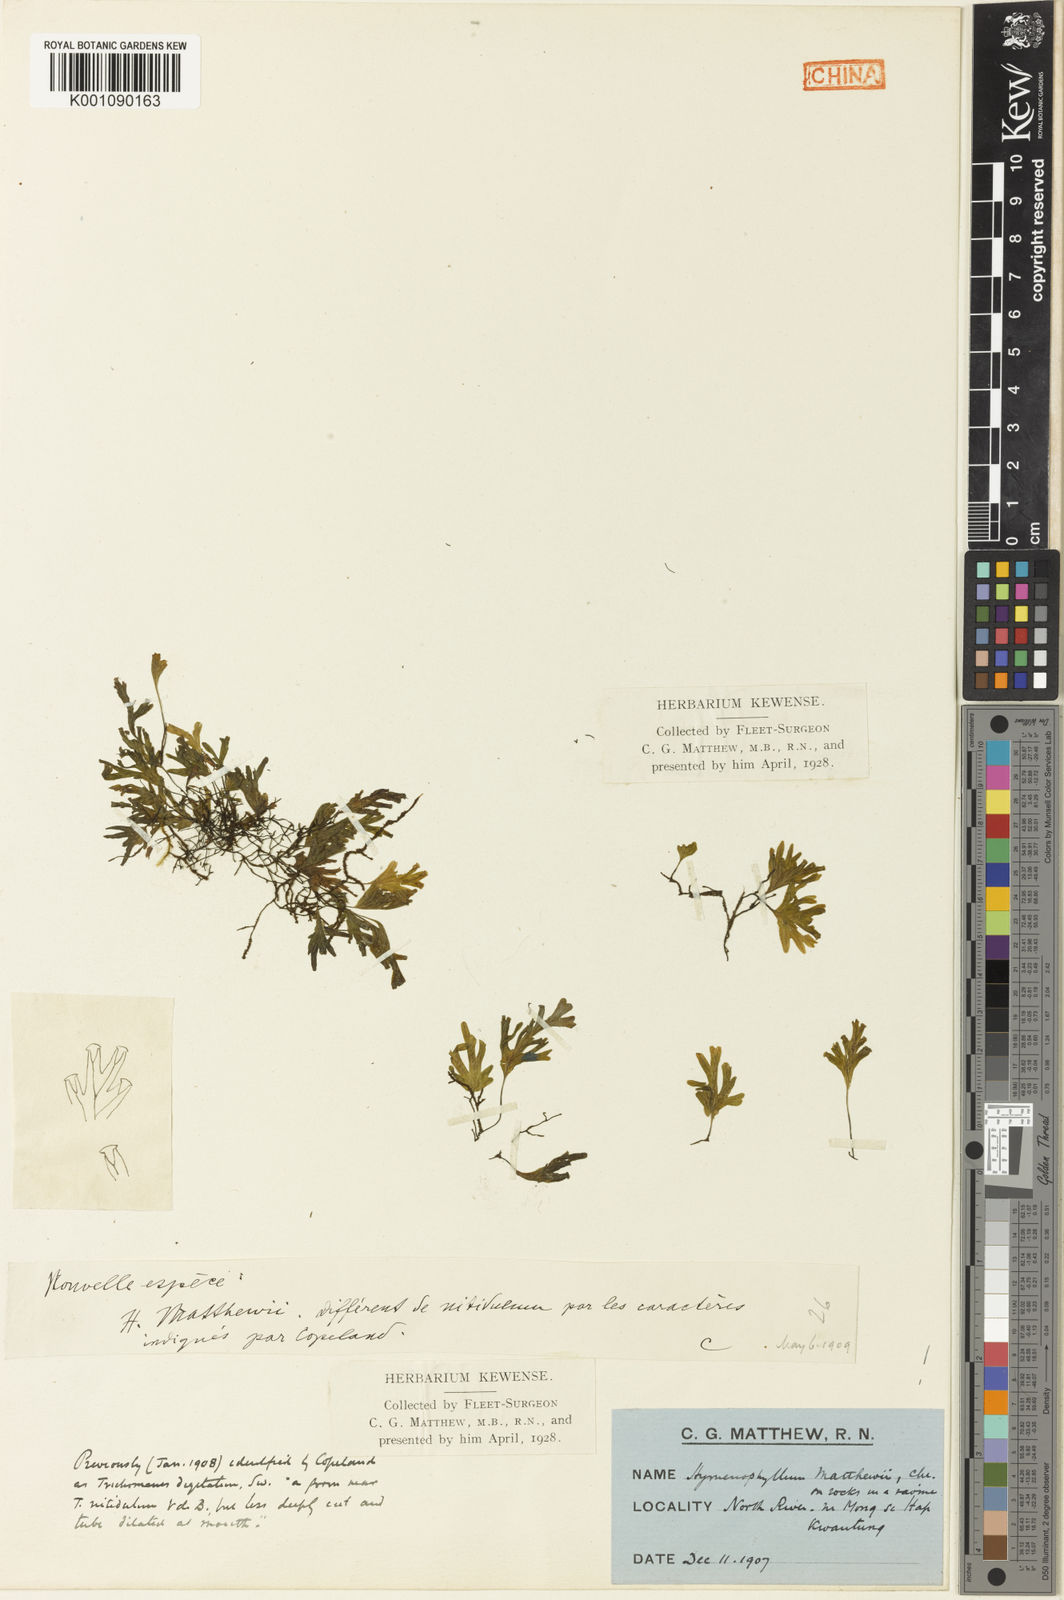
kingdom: Plantae
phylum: Tracheophyta
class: Polypodiopsida
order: Hymenophyllales
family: Hymenophyllaceae
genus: Crepidomanes
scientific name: Crepidomanes parvulum
